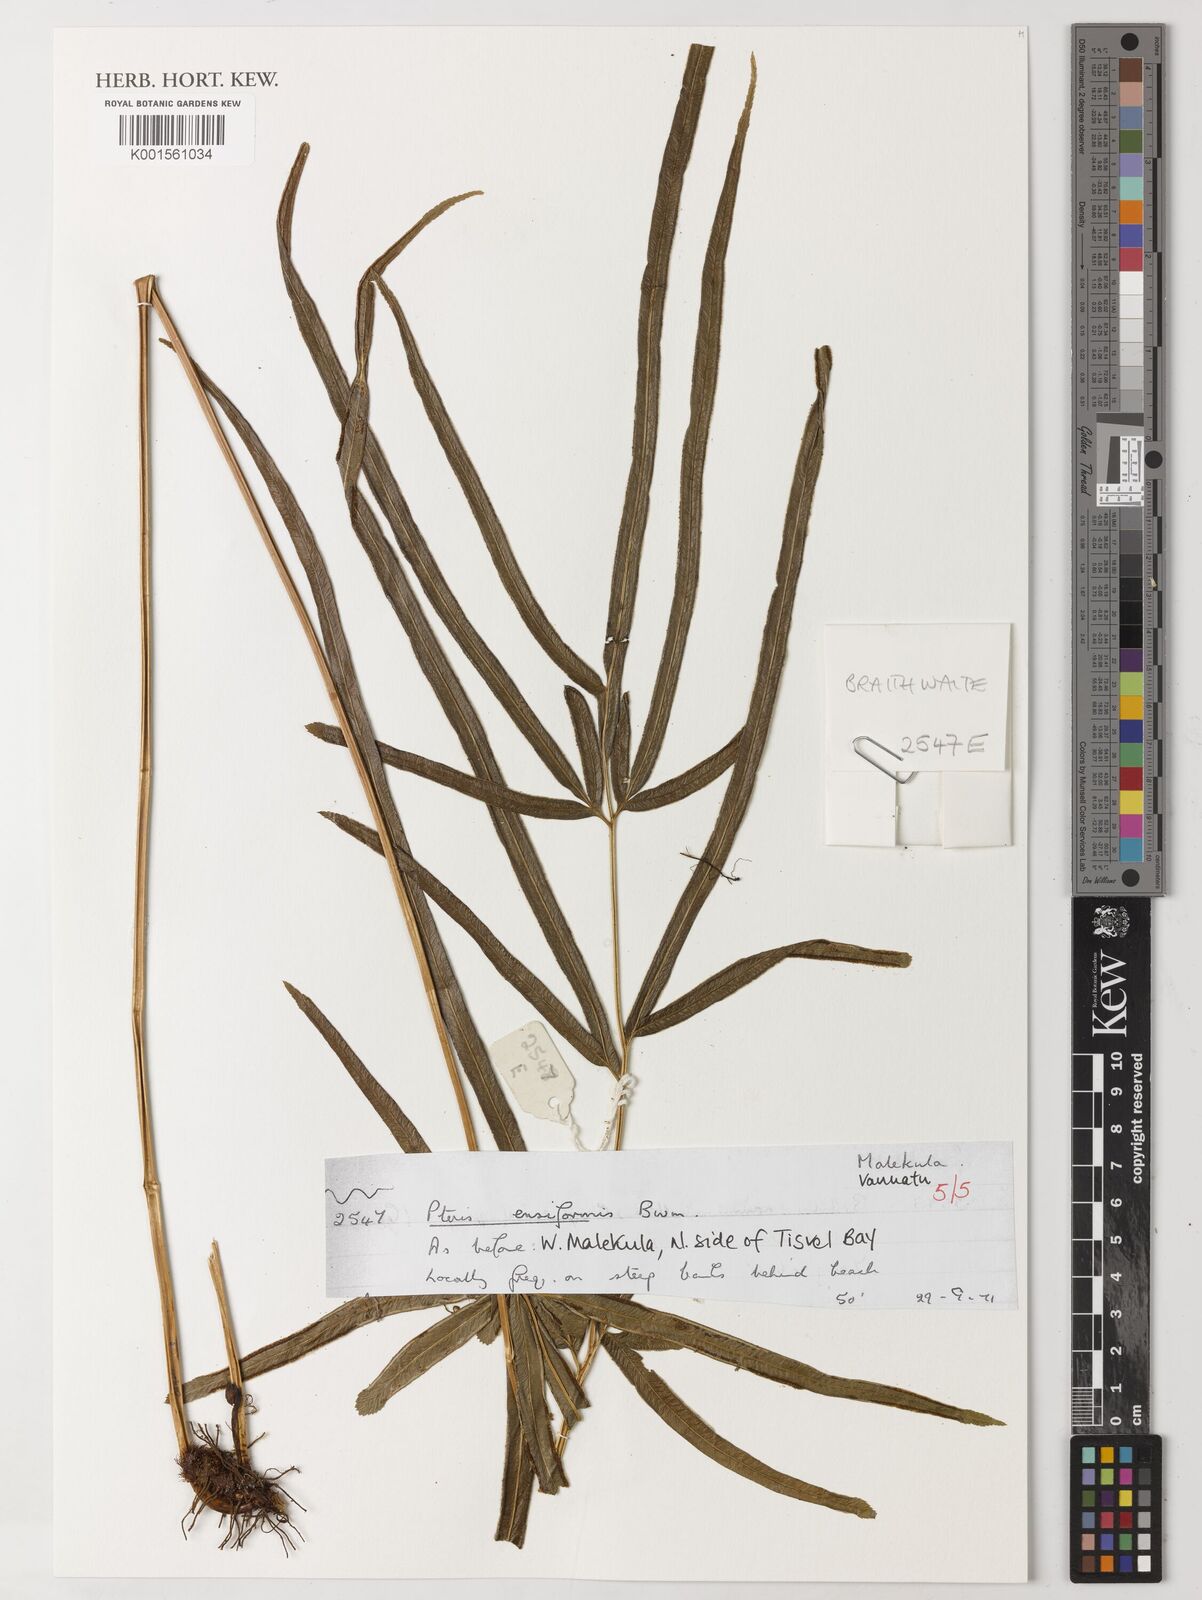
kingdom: Plantae
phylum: Tracheophyta
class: Polypodiopsida
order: Polypodiales
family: Pteridaceae
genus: Pteris
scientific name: Pteris ensiformis
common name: Sword brake
